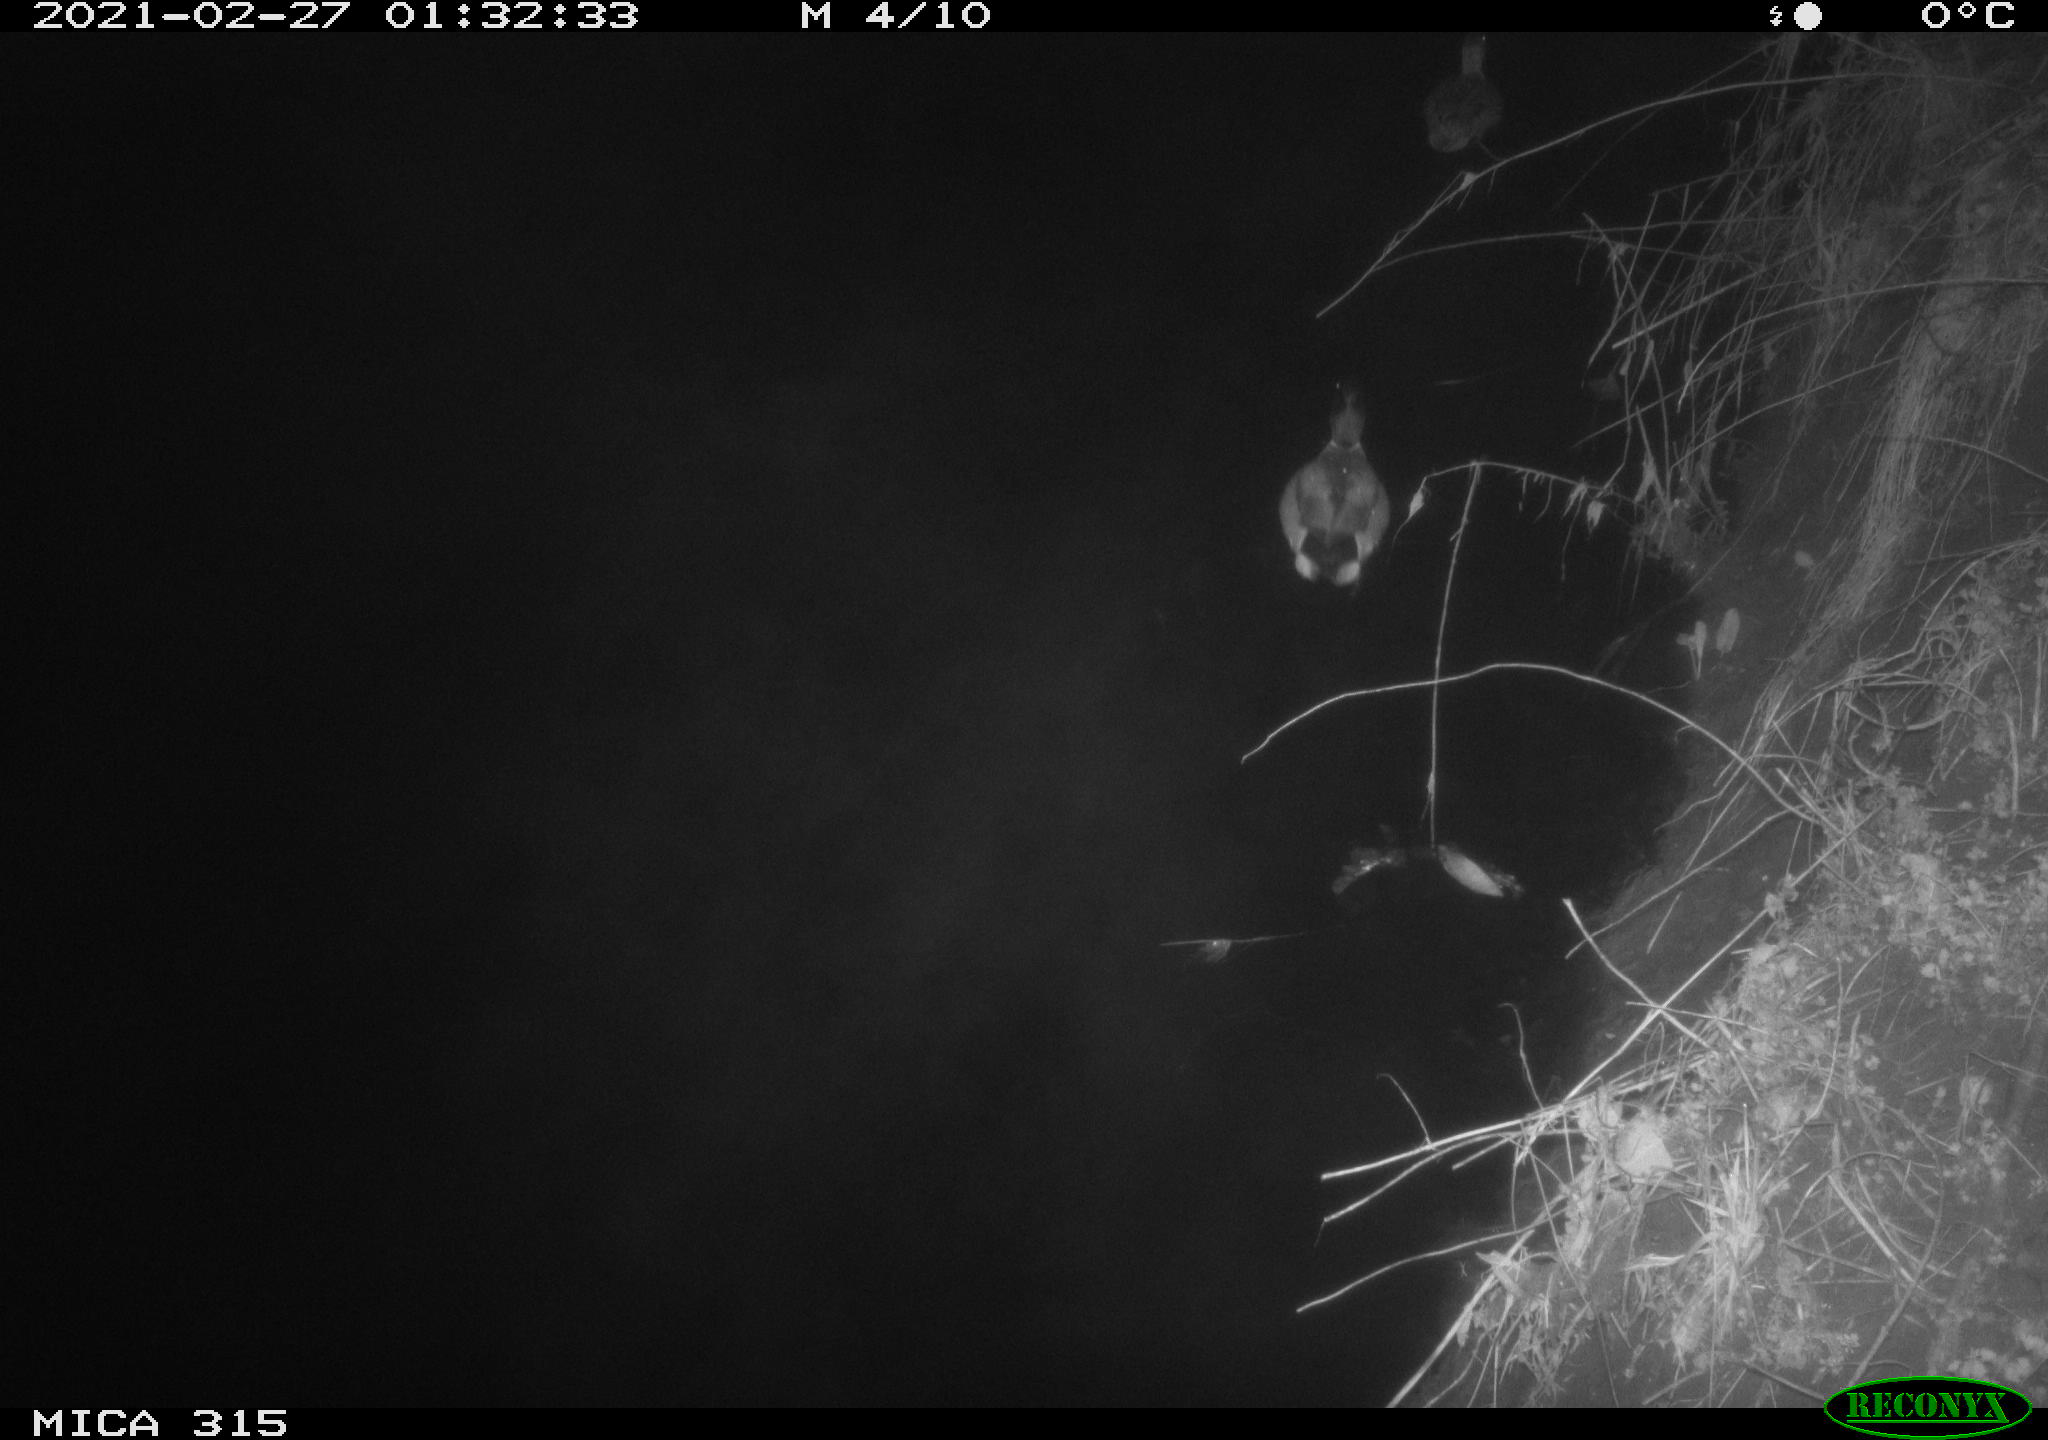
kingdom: Animalia
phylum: Chordata
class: Aves
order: Anseriformes
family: Anatidae
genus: Anas
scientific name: Anas platyrhynchos
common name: Mallard
